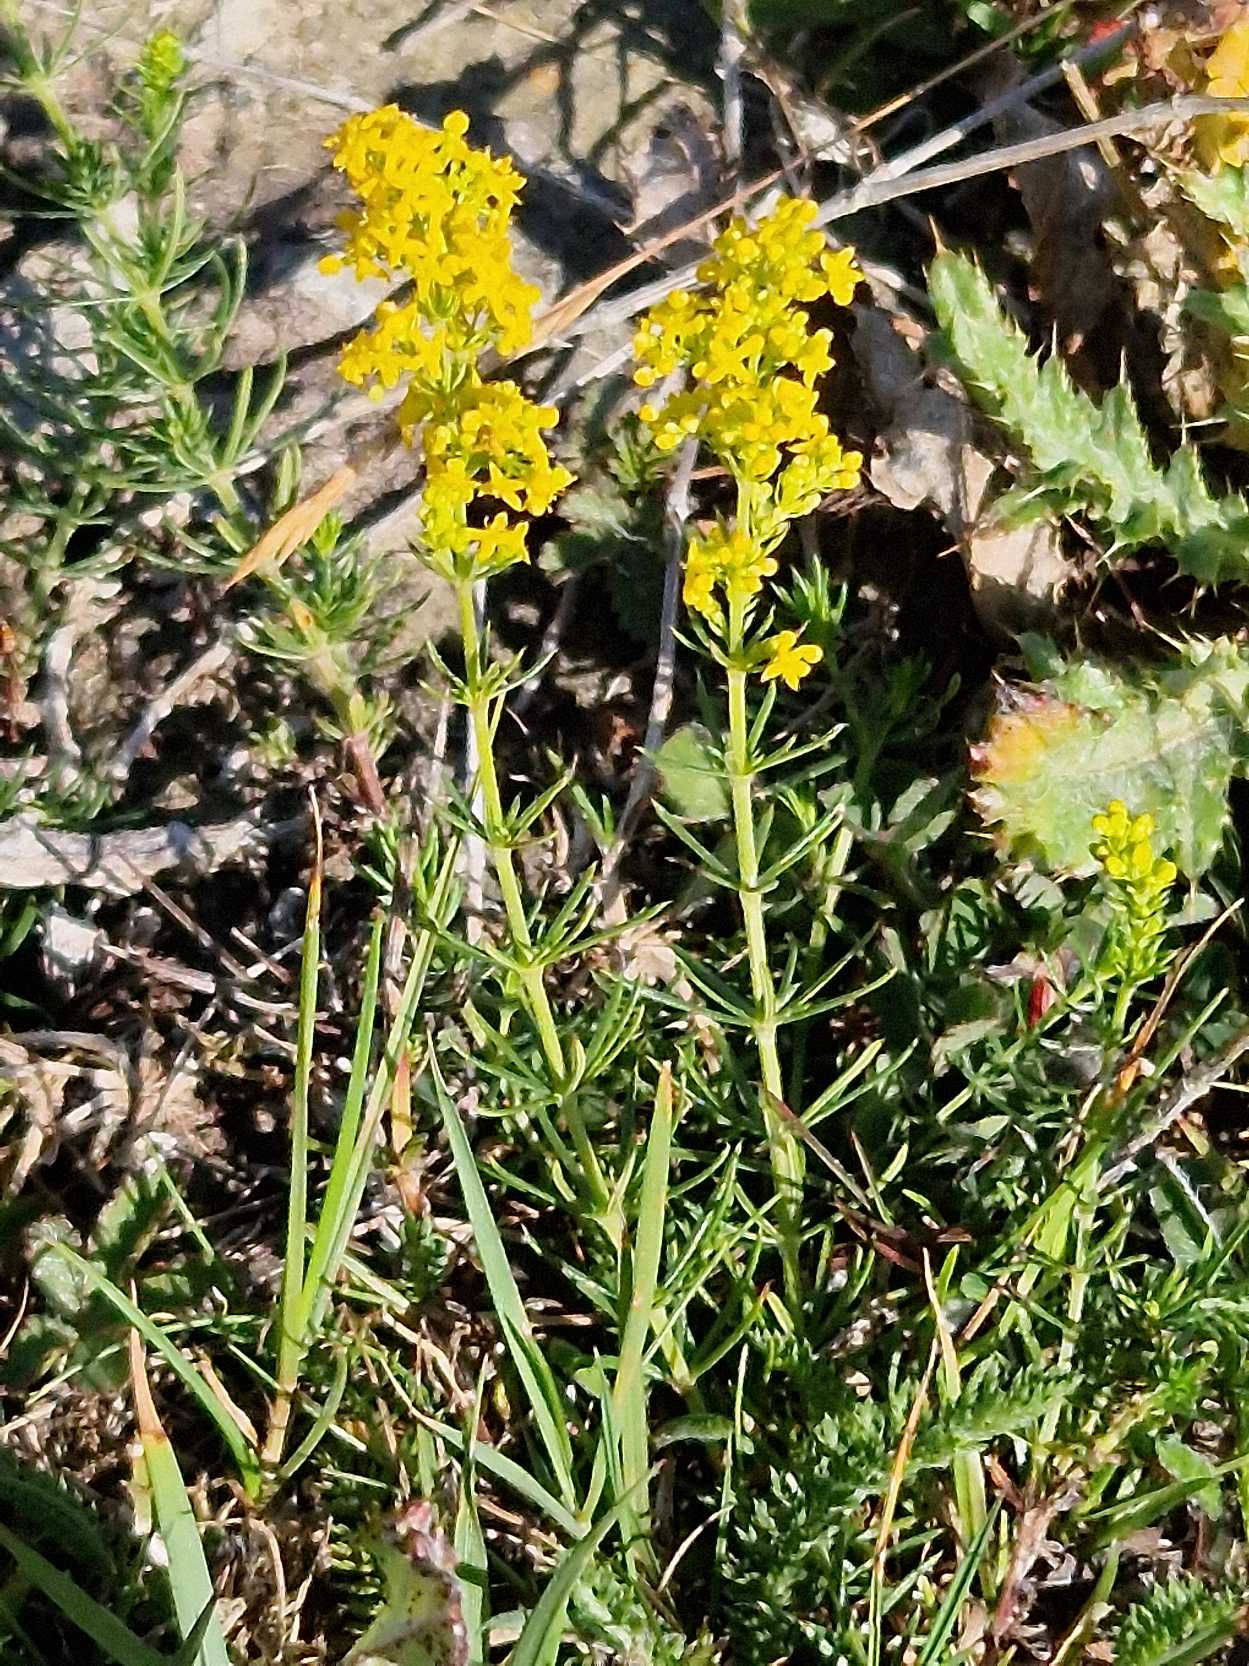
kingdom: Plantae
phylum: Tracheophyta
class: Magnoliopsida
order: Gentianales
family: Rubiaceae
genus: Galium
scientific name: Galium verum
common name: Gul snerre
